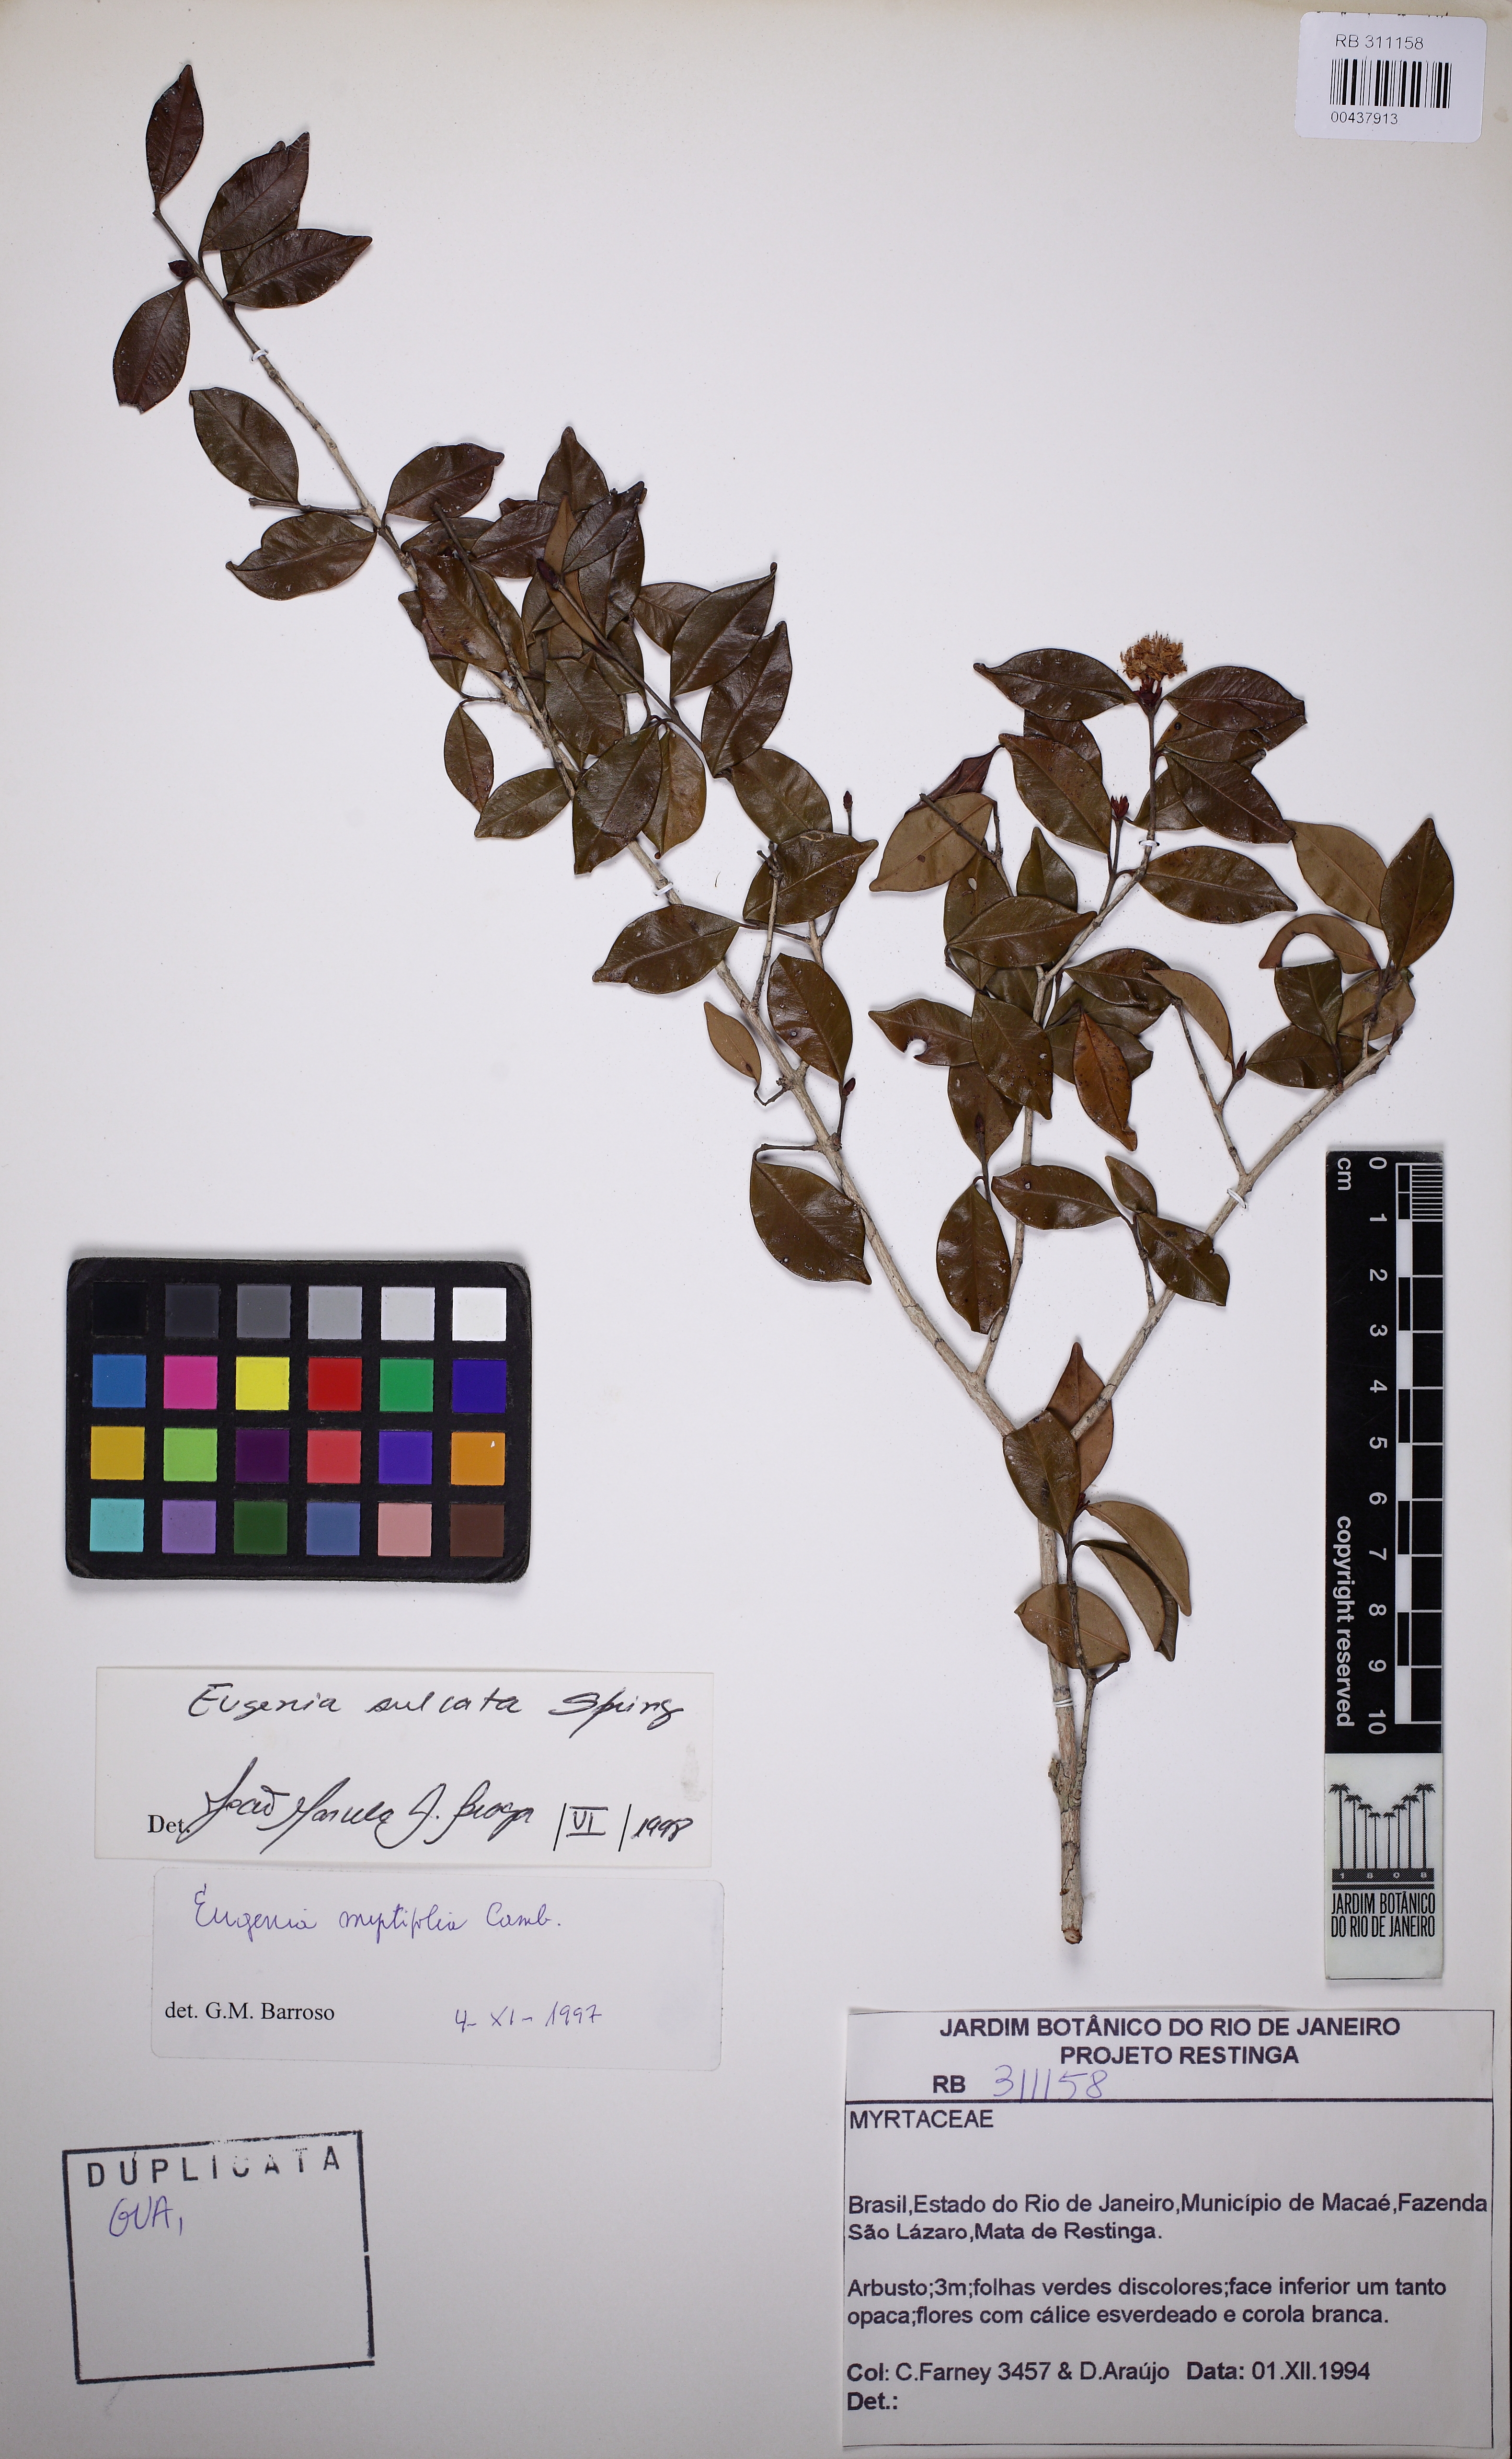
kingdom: Plantae
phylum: Tracheophyta
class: Magnoliopsida
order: Myrtales
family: Myrtaceae
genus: Eugenia
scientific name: Eugenia sulcata
